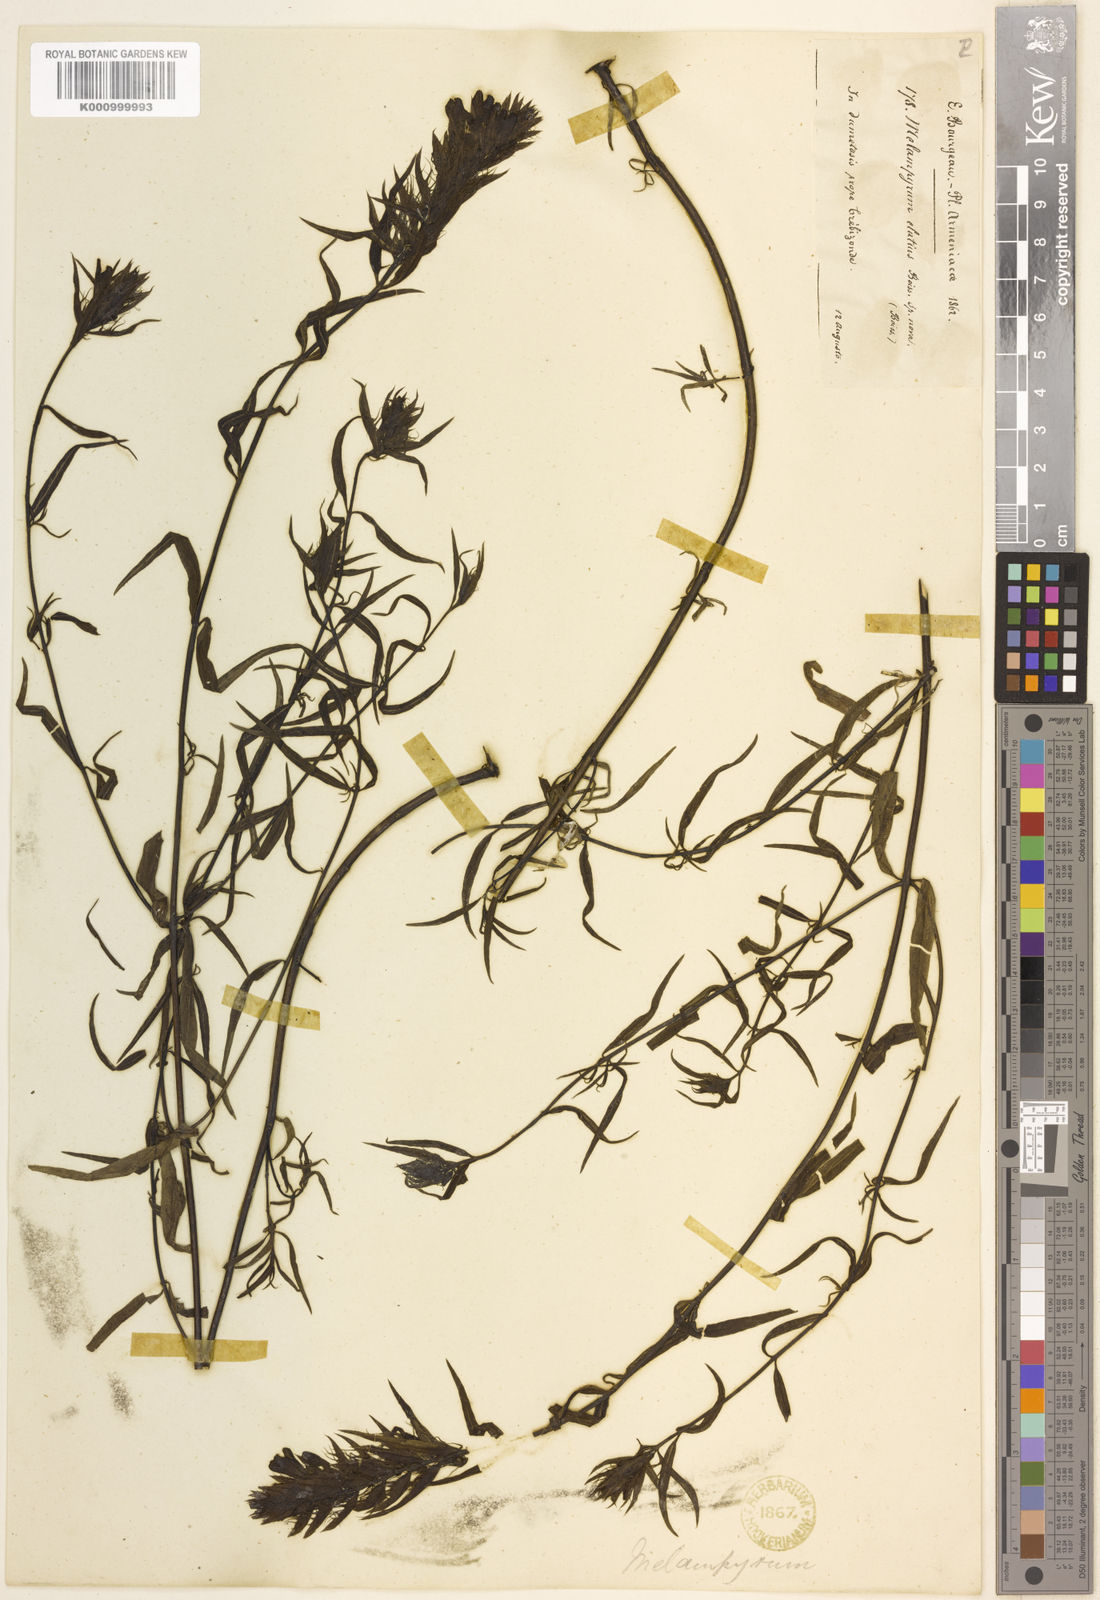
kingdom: Plantae
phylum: Tracheophyta
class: Magnoliopsida
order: Lamiales
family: Orobanchaceae
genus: Melampyrum
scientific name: Melampyrum elatius
